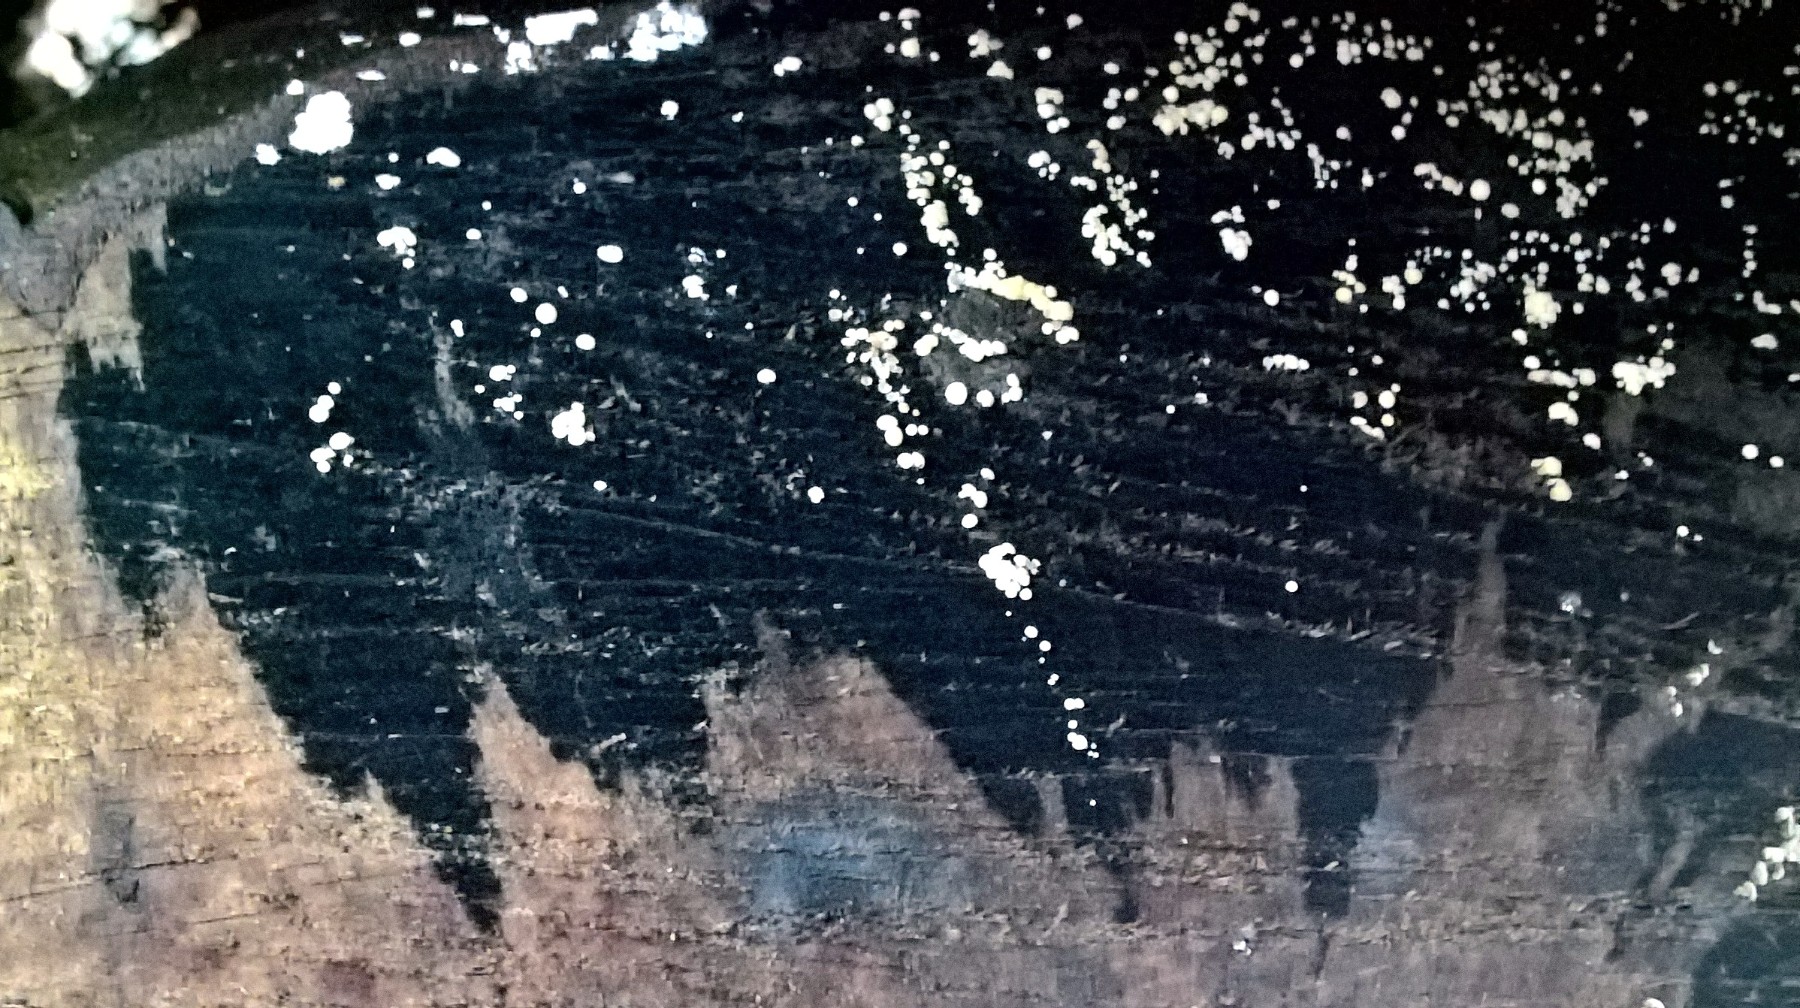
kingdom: Fungi
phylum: Ascomycota
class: Leotiomycetes
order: Helotiales
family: Helotiaceae
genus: Bispora
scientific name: Bispora pallescens
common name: måtte-snitskive
